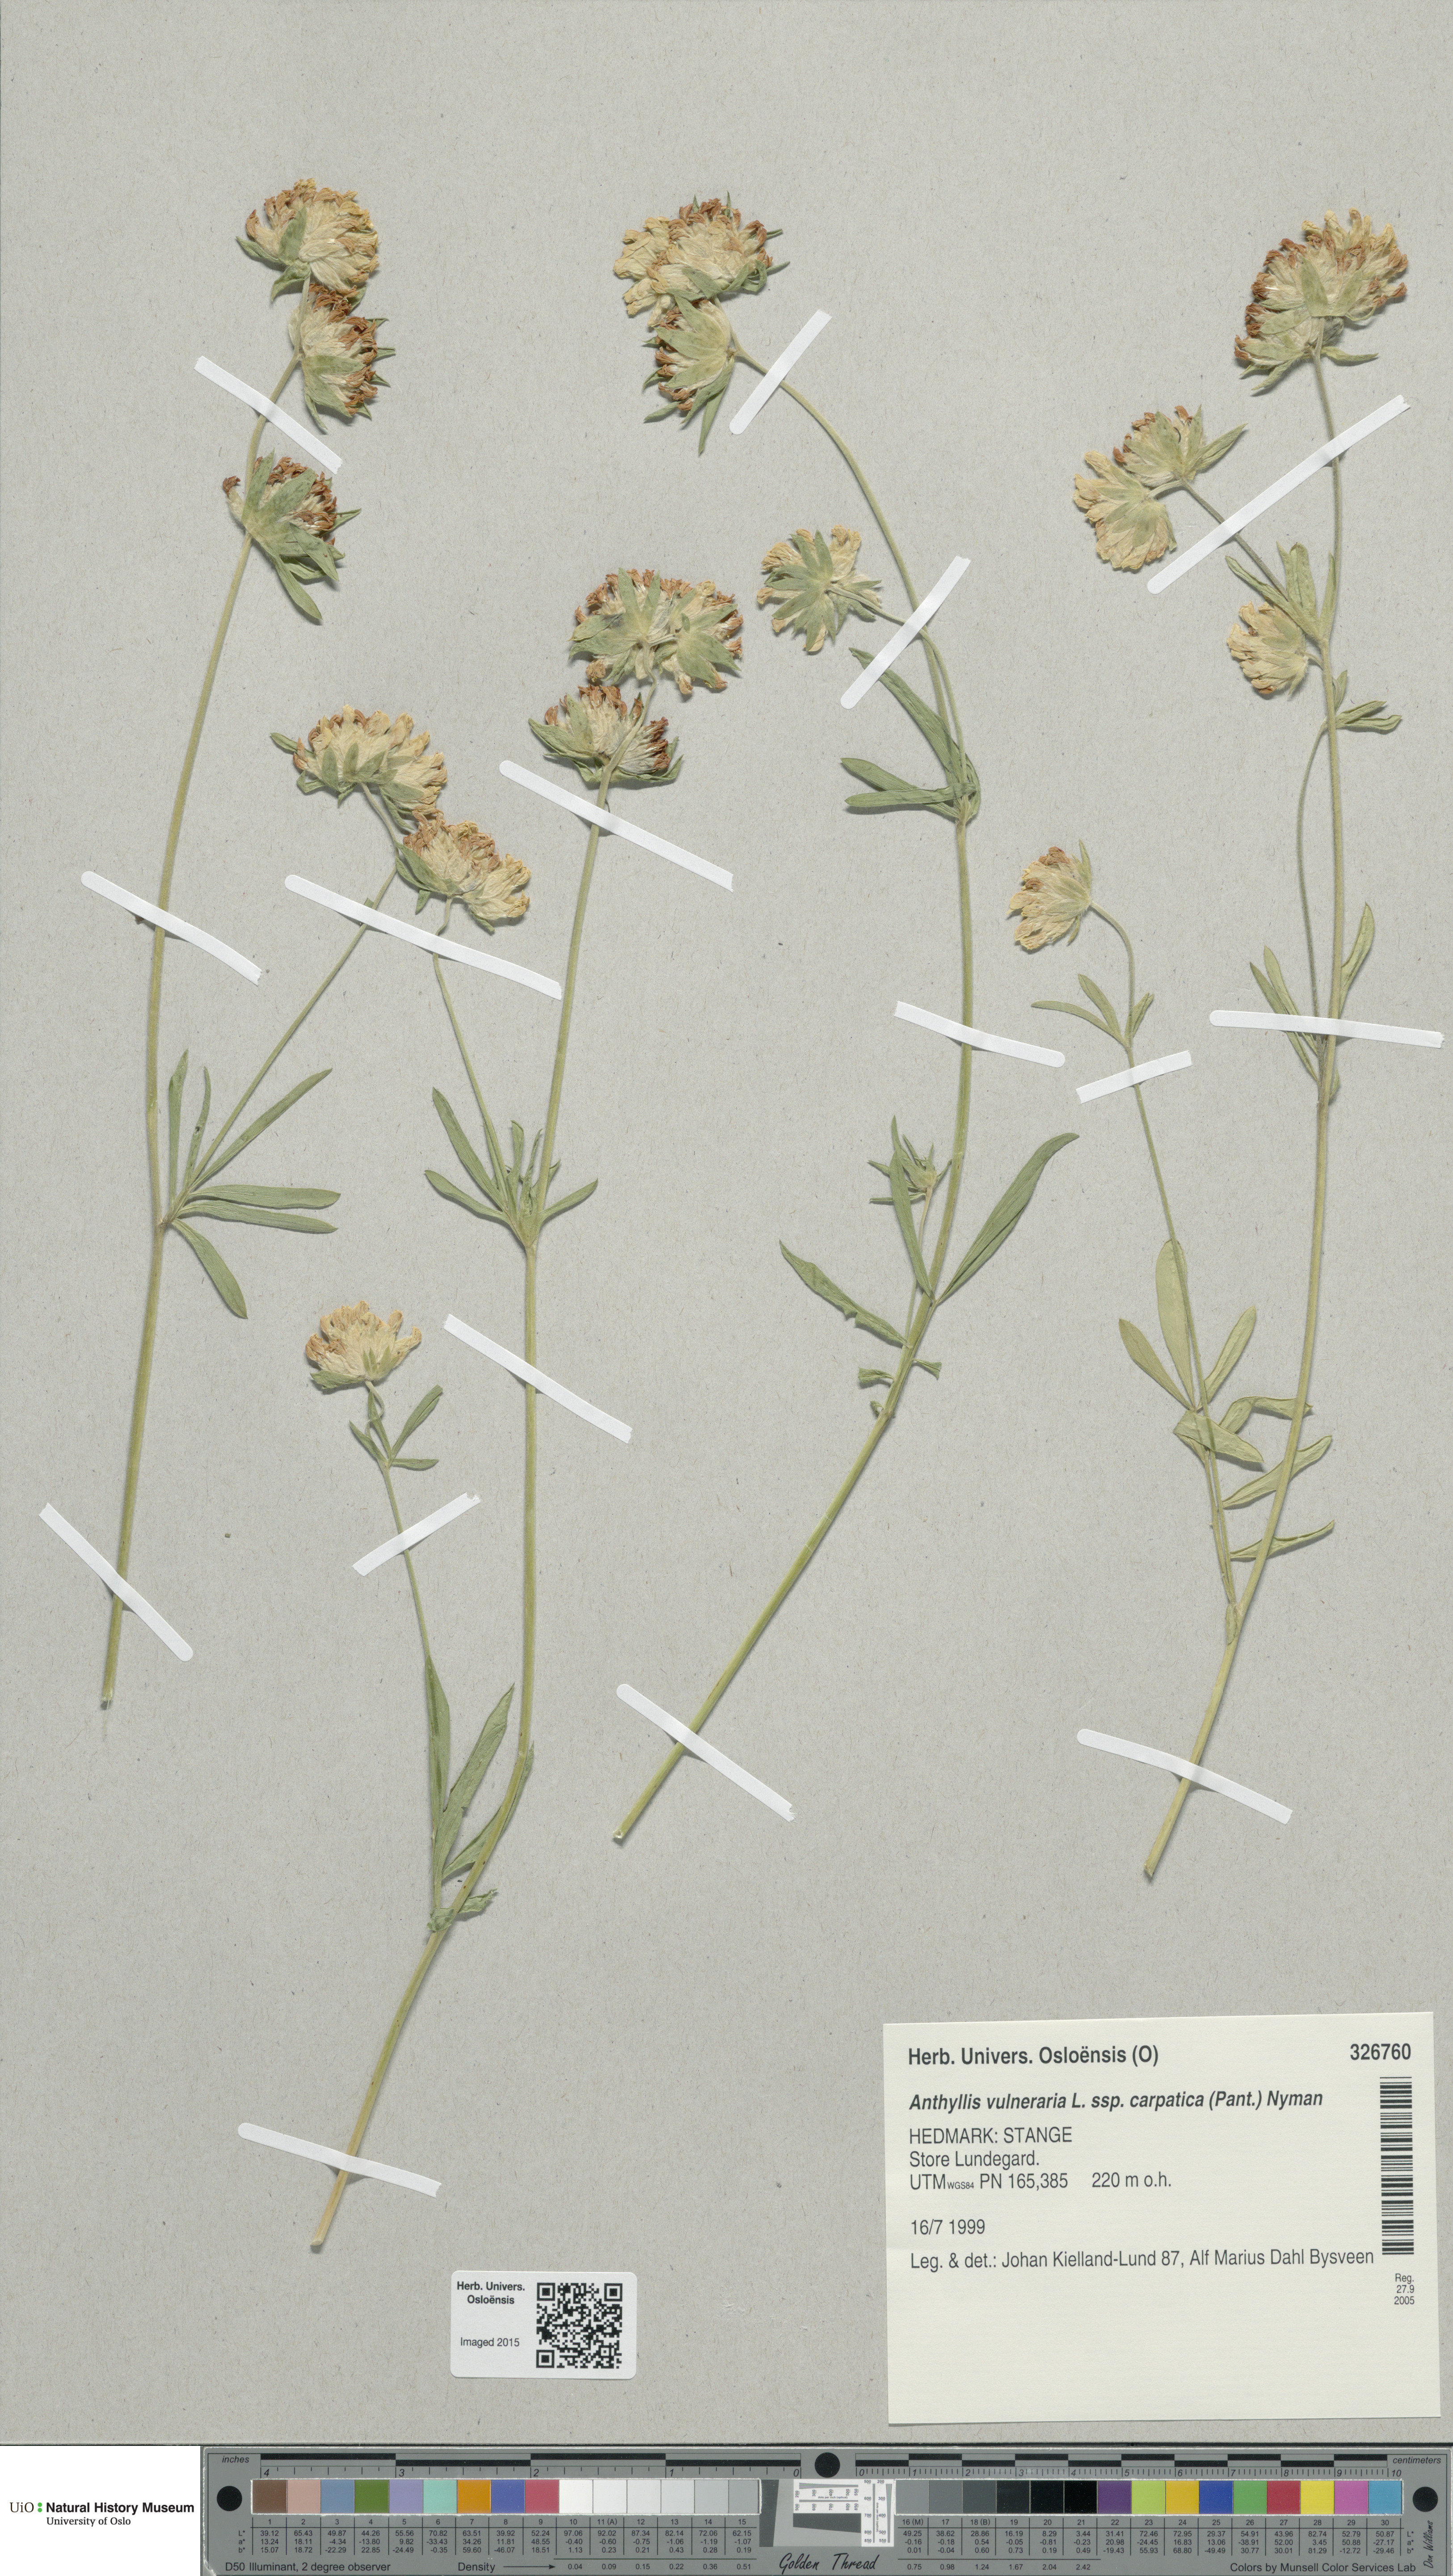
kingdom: Plantae
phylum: Tracheophyta
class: Magnoliopsida
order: Fabales
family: Fabaceae
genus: Anthyllis
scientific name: Anthyllis vulneraria
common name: Kidney vetch
